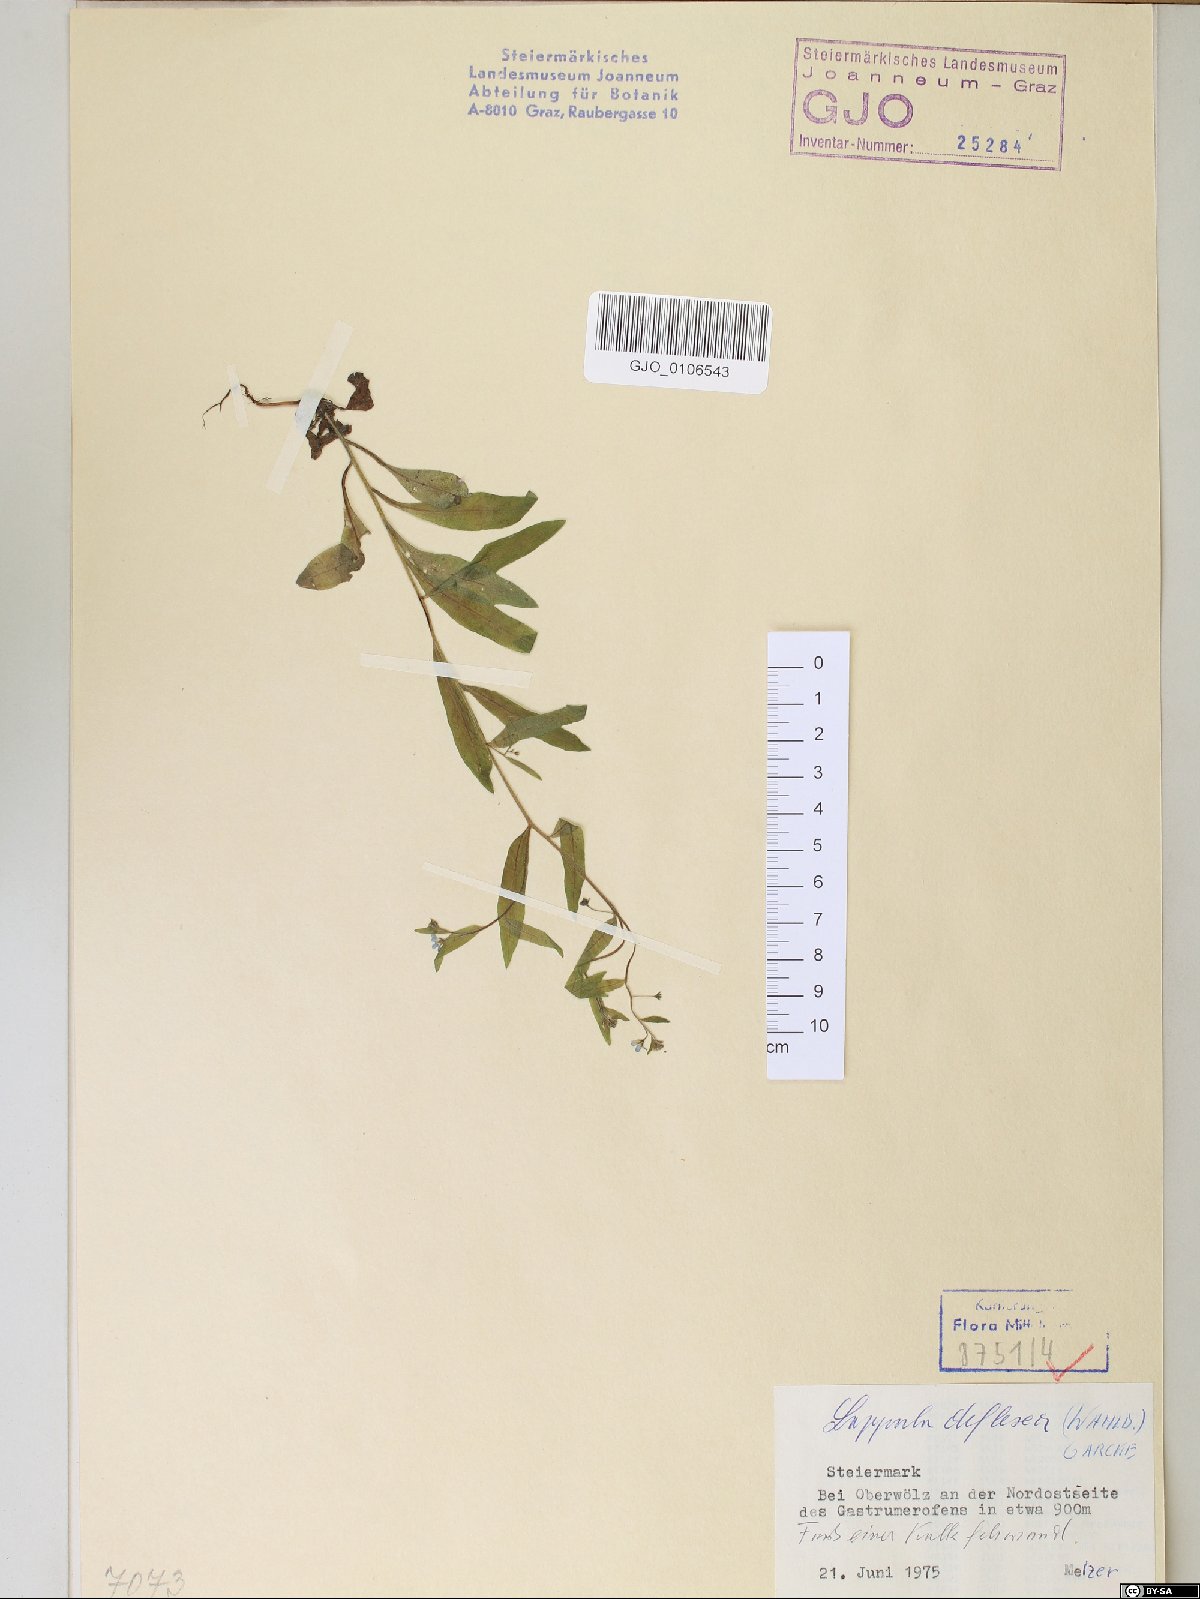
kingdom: Plantae
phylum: Tracheophyta
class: Magnoliopsida
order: Boraginales
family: Boraginaceae
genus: Hackelia
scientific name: Hackelia deflexa
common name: Nodding stickseed
